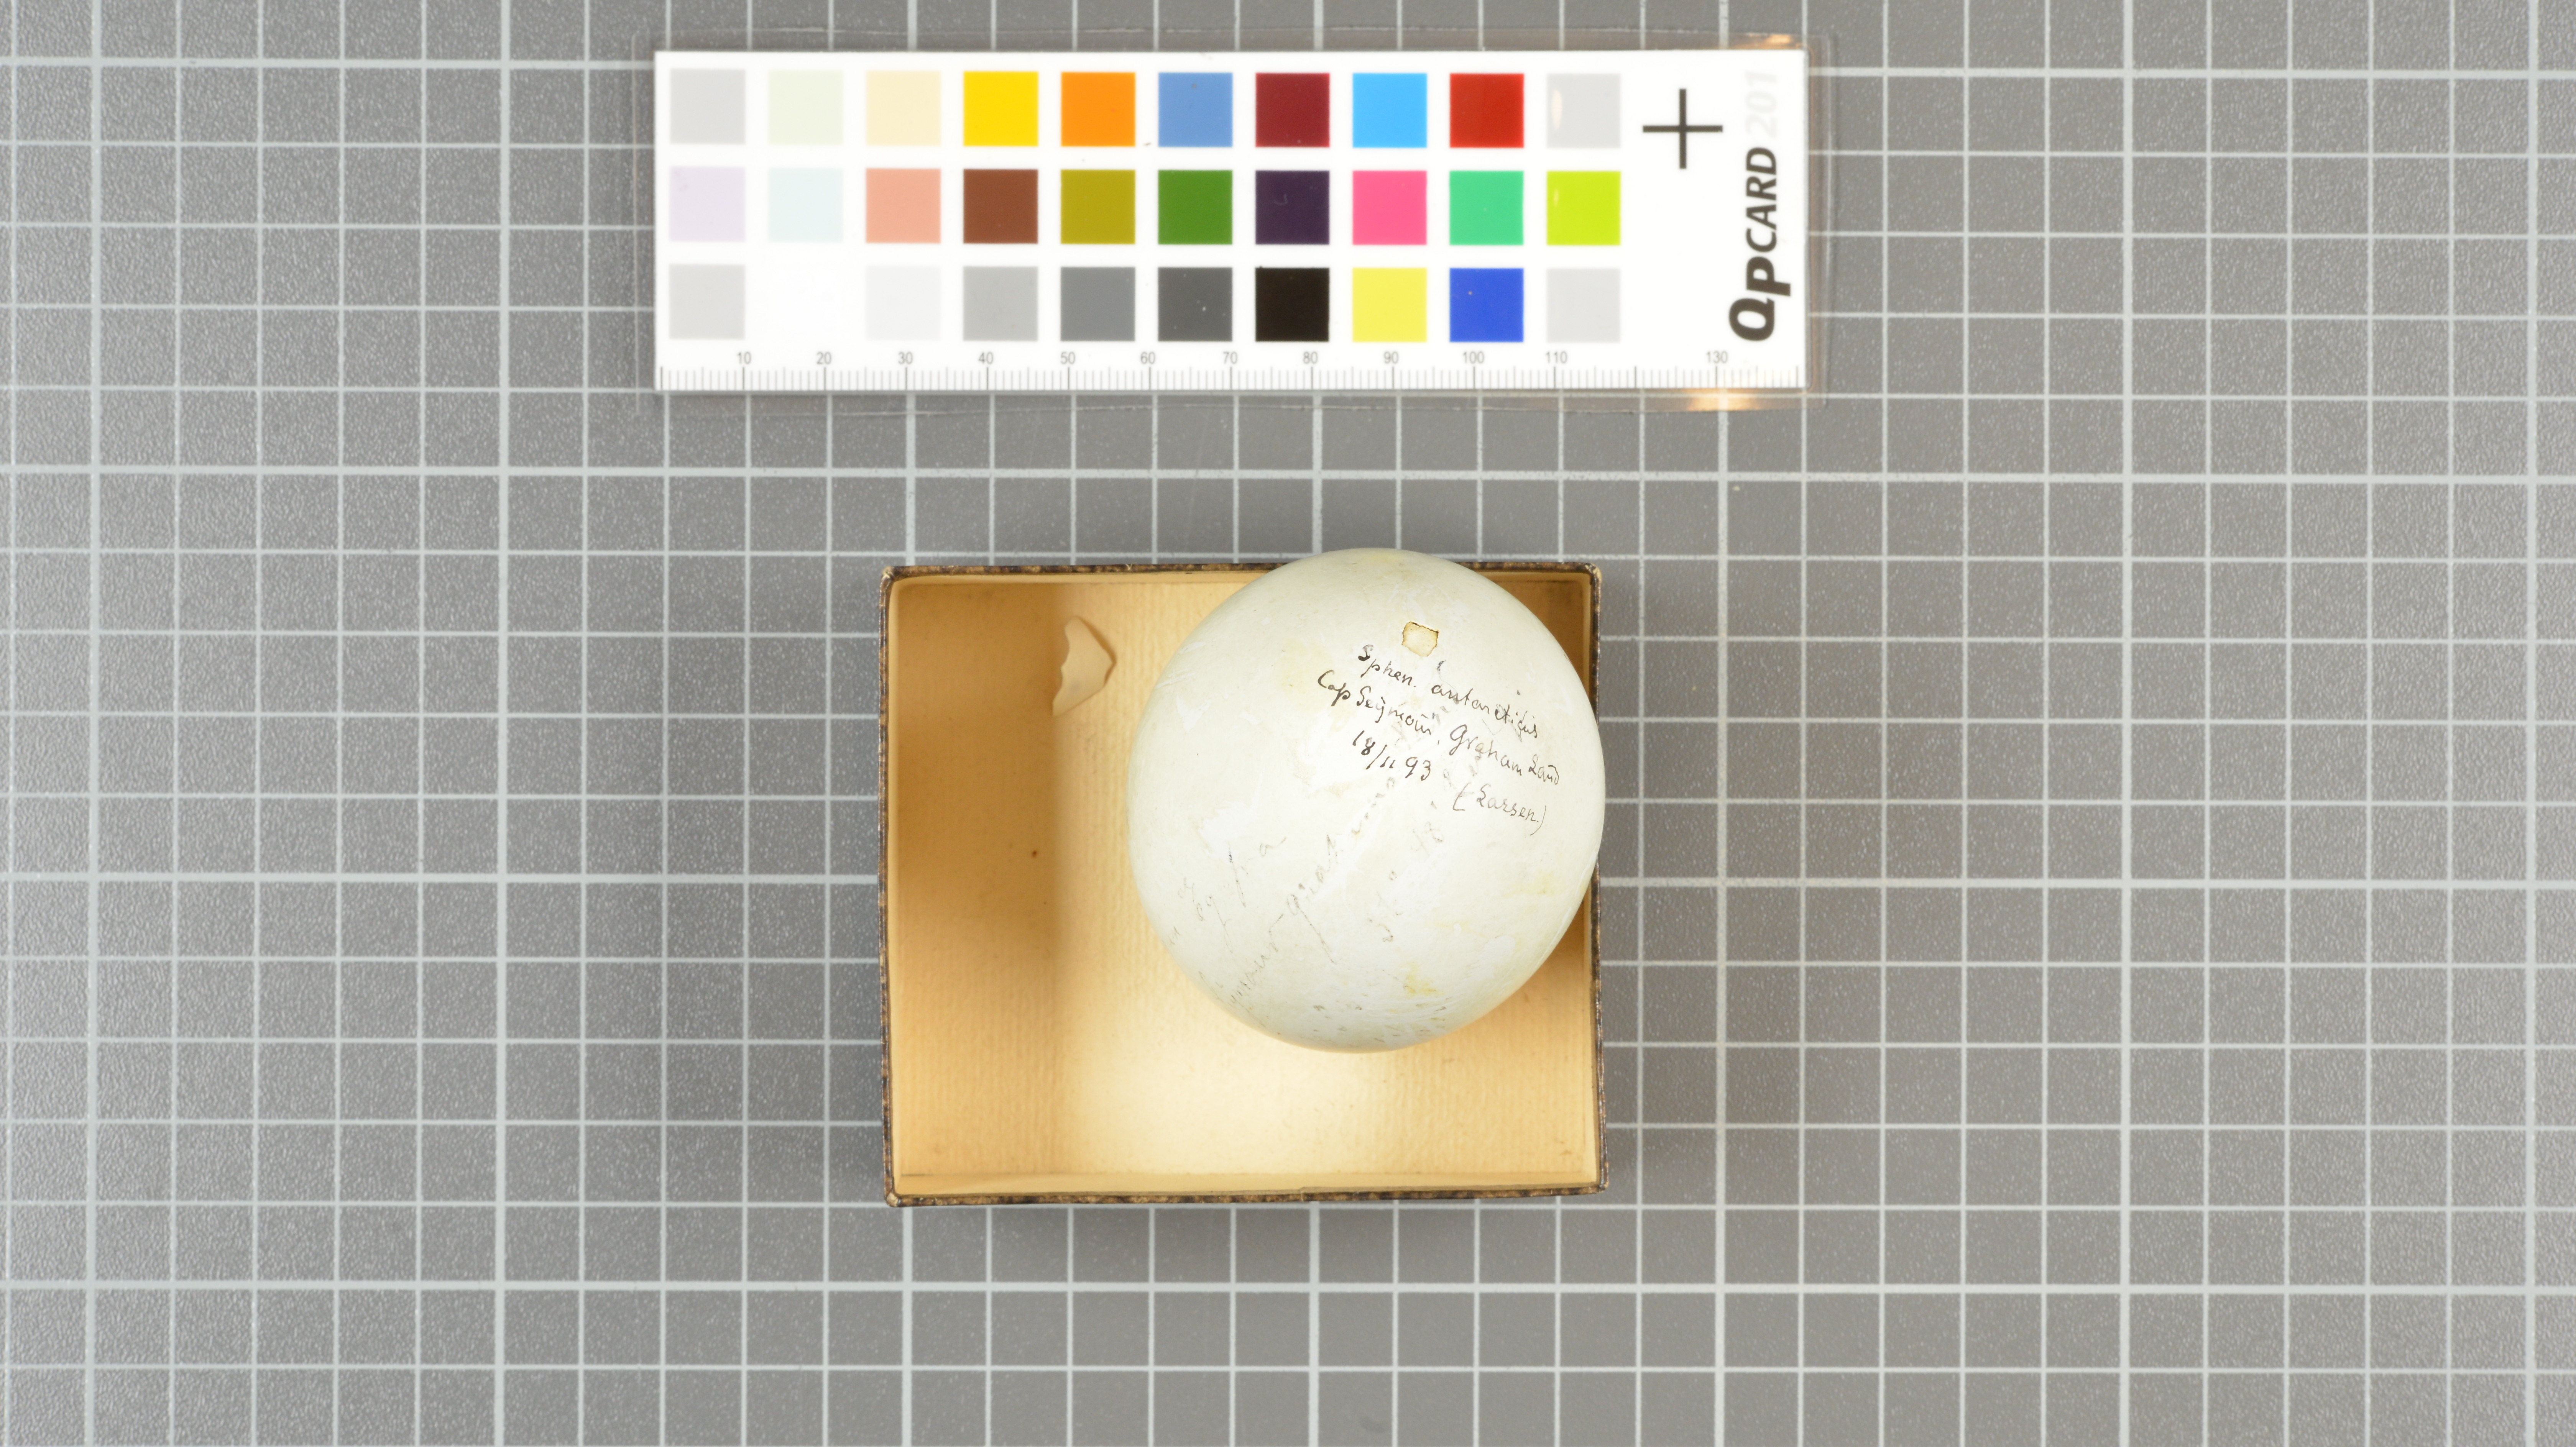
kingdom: Animalia
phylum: Chordata
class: Aves
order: Sphenisciformes
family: Spheniscidae
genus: Eudyptes
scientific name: Eudyptes chrysocome
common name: Southern rockhopper penguin
